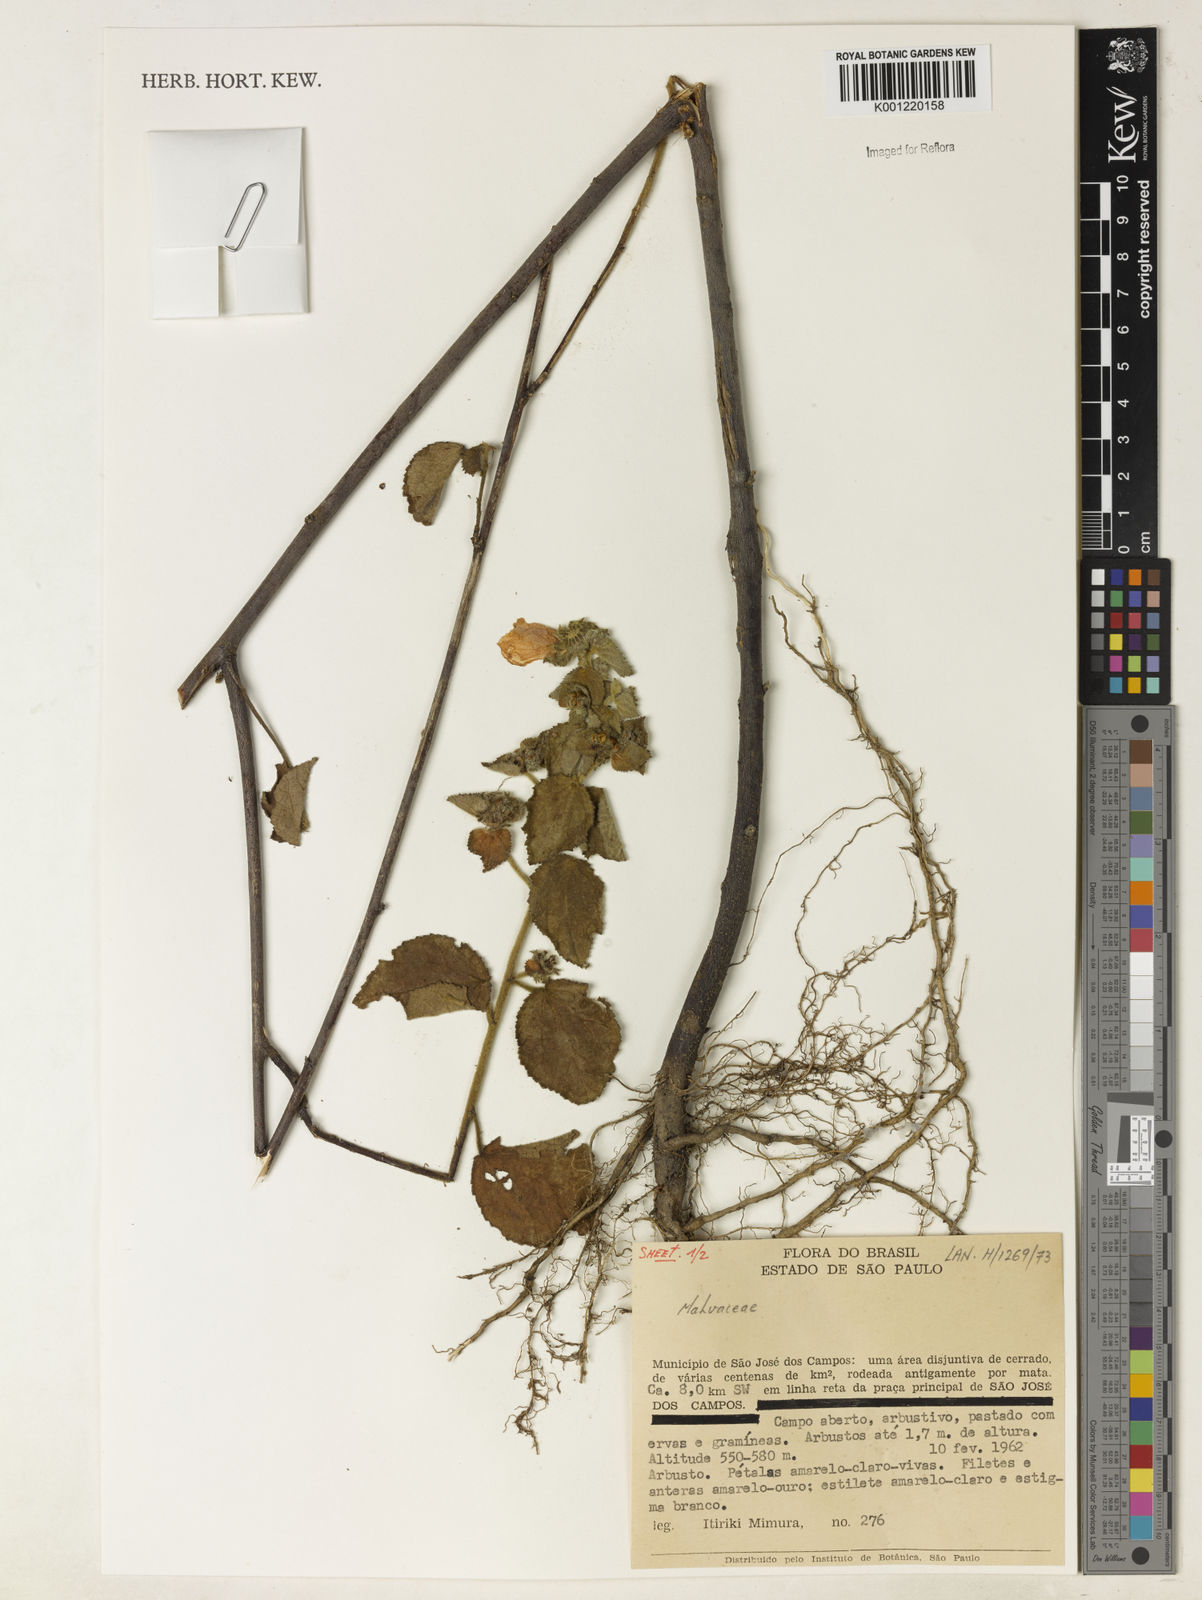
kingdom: Plantae
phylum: Tracheophyta
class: Magnoliopsida
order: Malvales
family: Malvaceae
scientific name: Malvaceae
